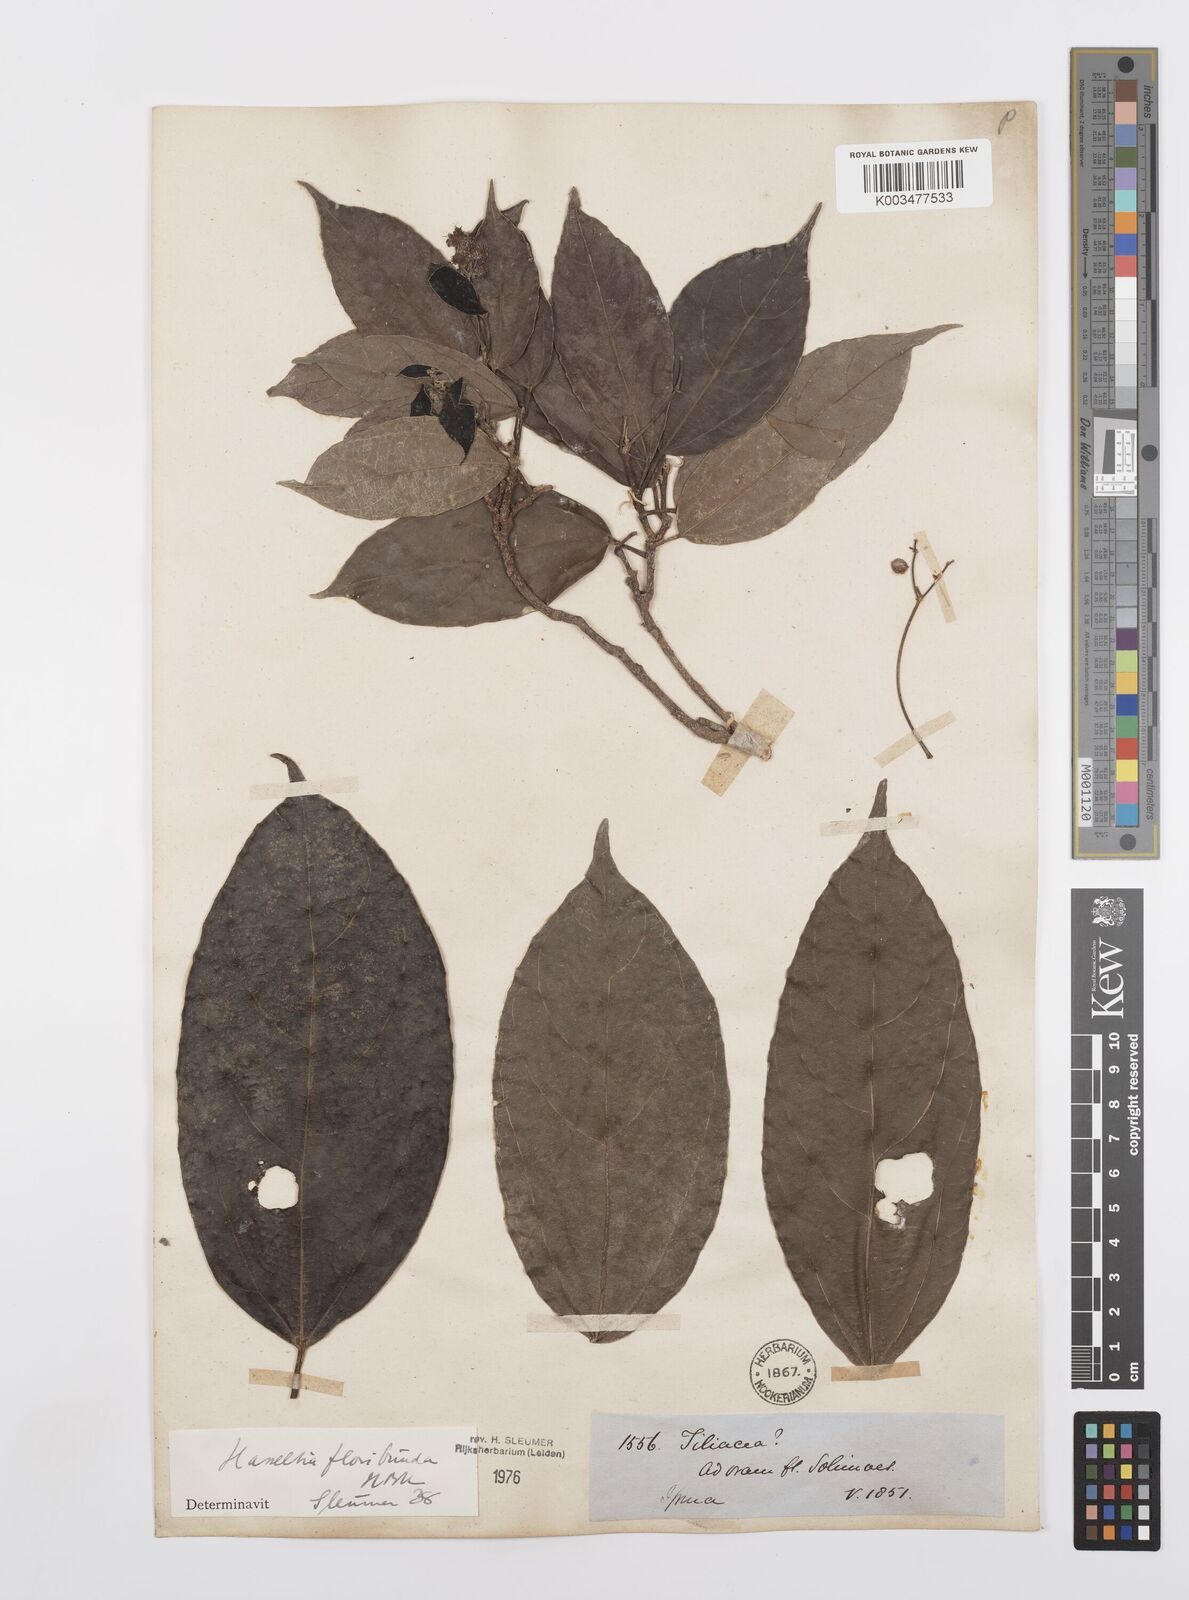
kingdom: Plantae
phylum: Tracheophyta
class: Magnoliopsida
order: Malpighiales
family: Salicaceae
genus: Hasseltia
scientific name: Hasseltia floribunda
